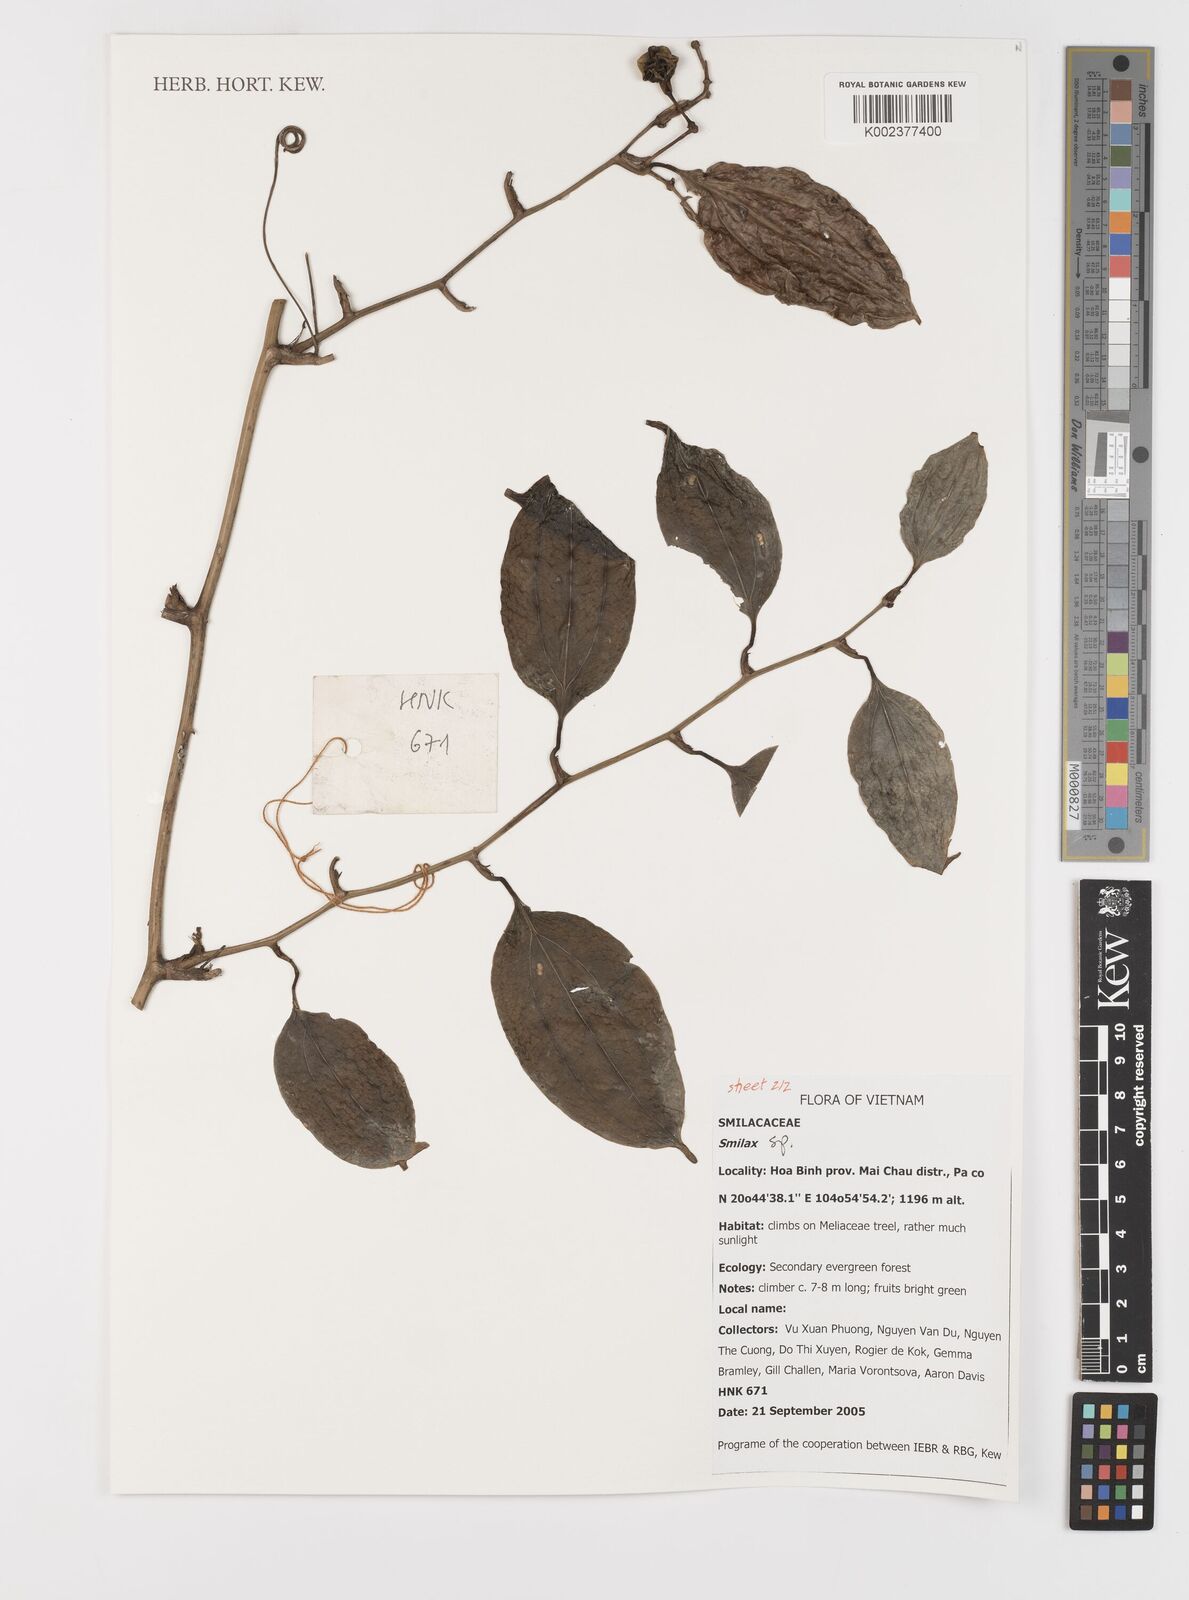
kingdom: Plantae
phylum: Tracheophyta
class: Liliopsida
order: Liliales
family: Smilacaceae
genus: Smilax
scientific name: Smilax
